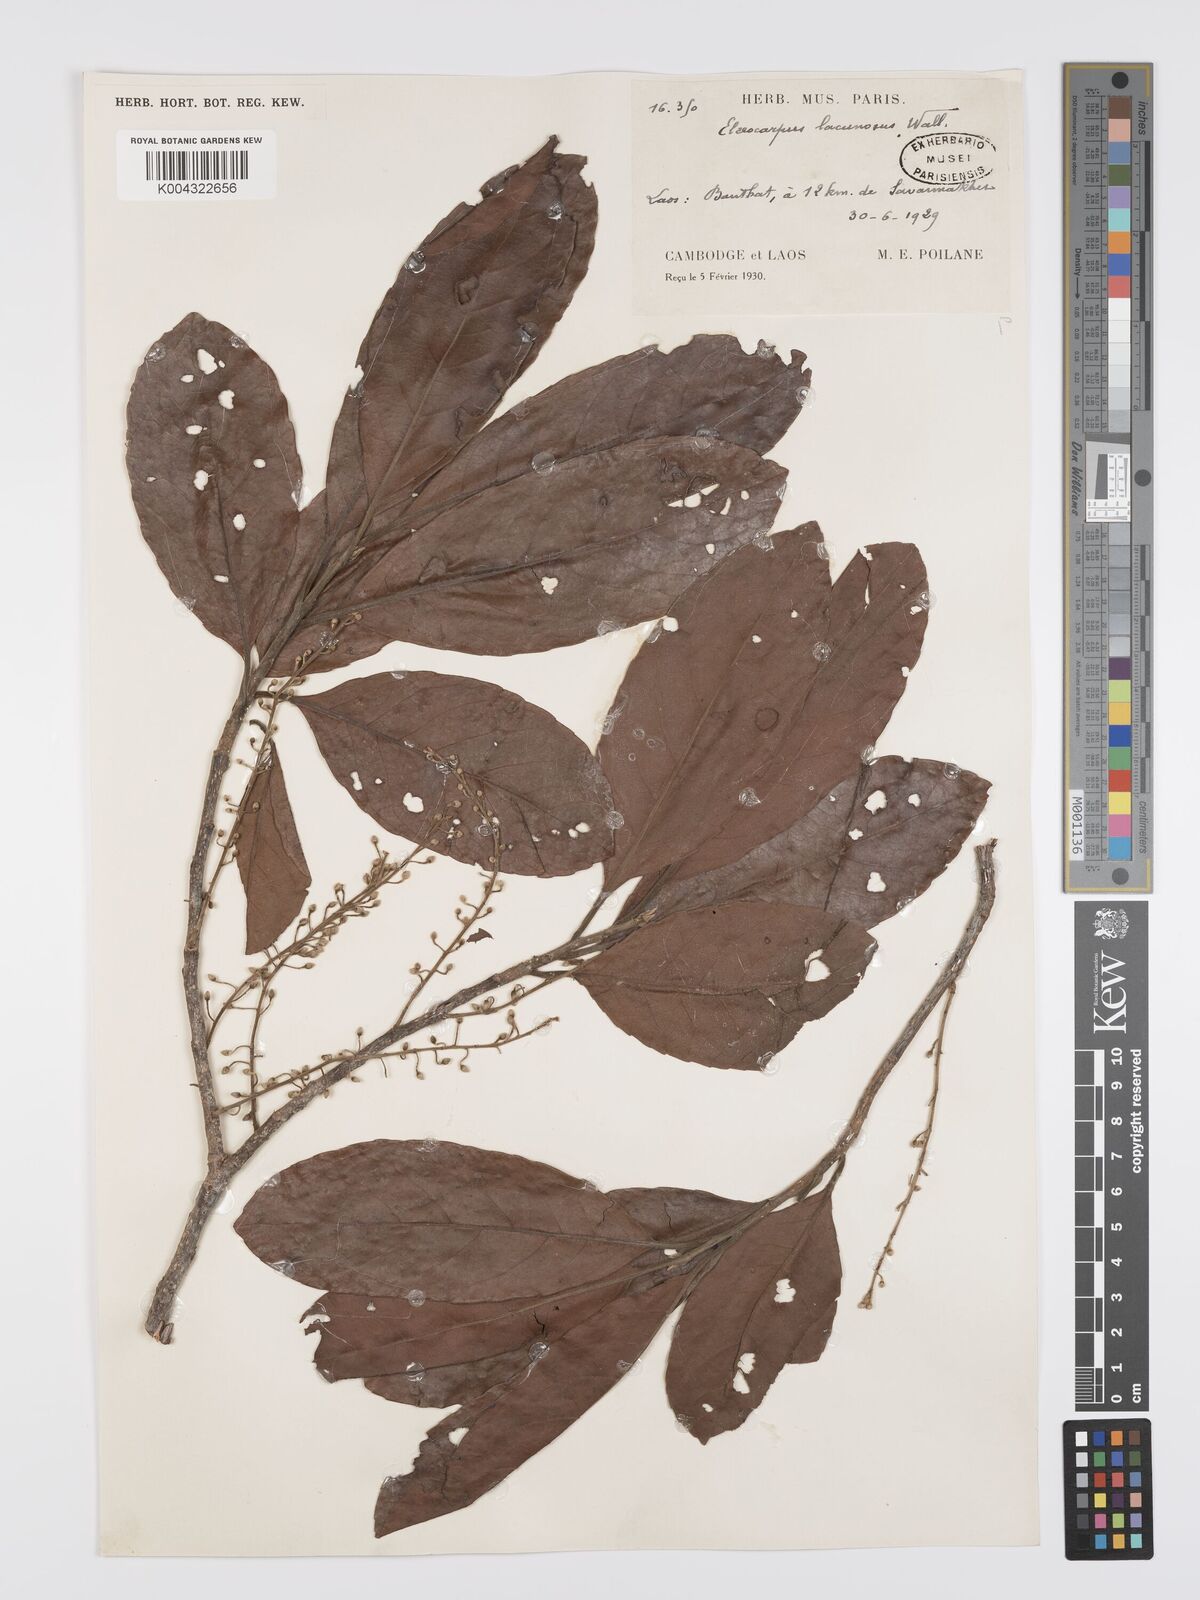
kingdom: Plantae
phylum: Tracheophyta
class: Magnoliopsida
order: Oxalidales
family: Elaeocarpaceae
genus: Elaeocarpus
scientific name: Elaeocarpus lanceifolius
